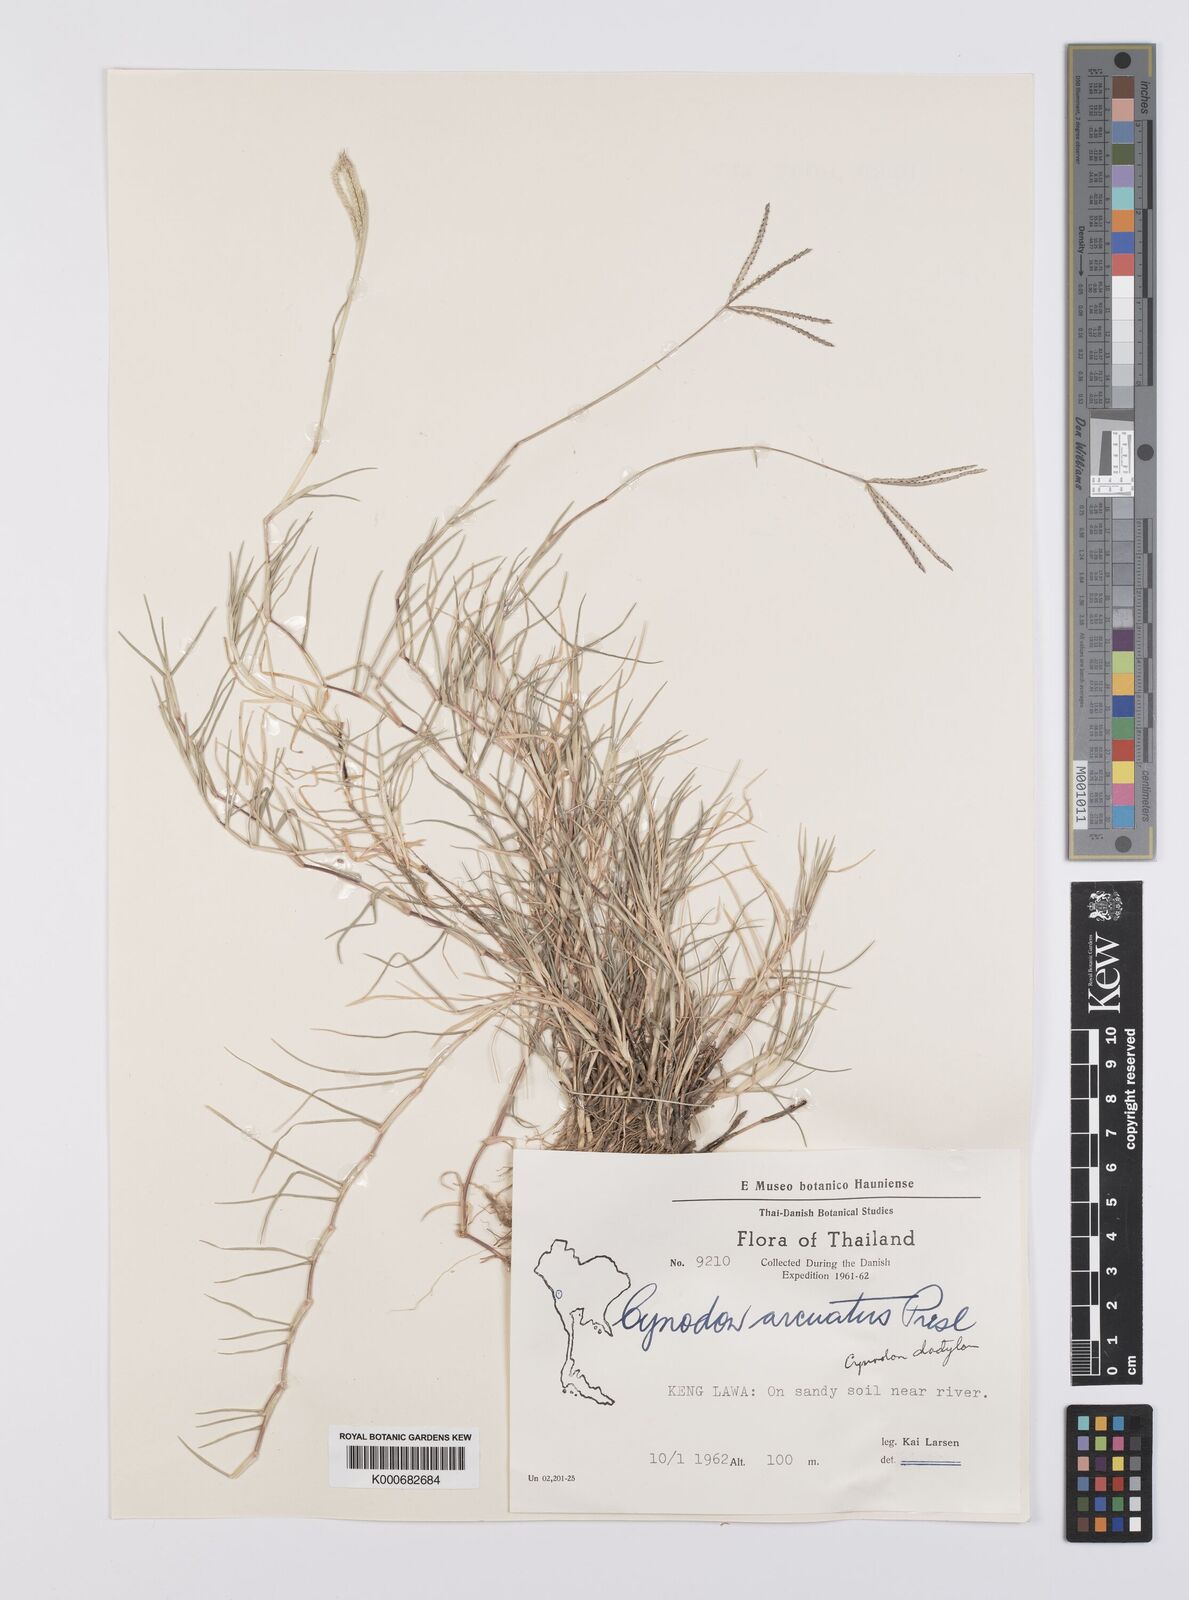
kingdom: Plantae
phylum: Tracheophyta
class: Liliopsida
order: Poales
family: Poaceae
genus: Cynodon
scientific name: Cynodon dactylon
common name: Bermuda grass
